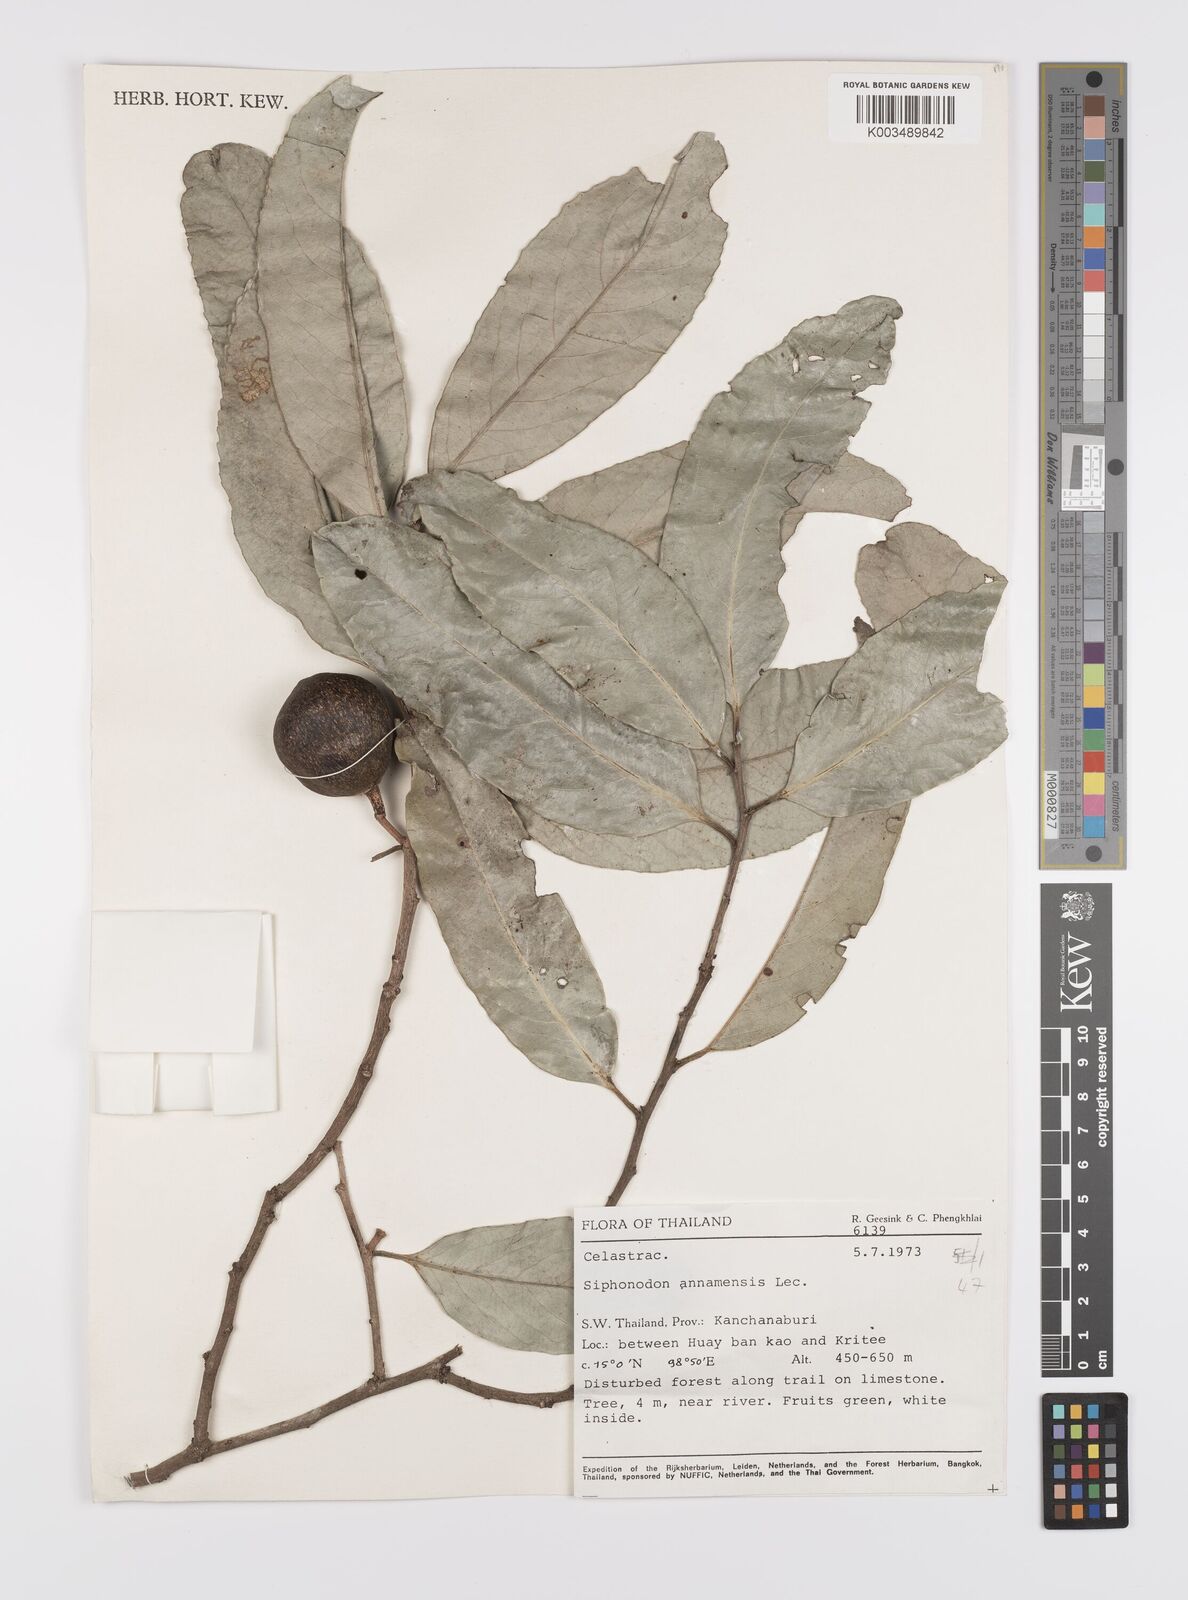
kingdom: Plantae
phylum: Tracheophyta
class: Magnoliopsida
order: Celastrales
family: Celastraceae
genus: Siphonodon
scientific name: Siphonodon celastrineus
